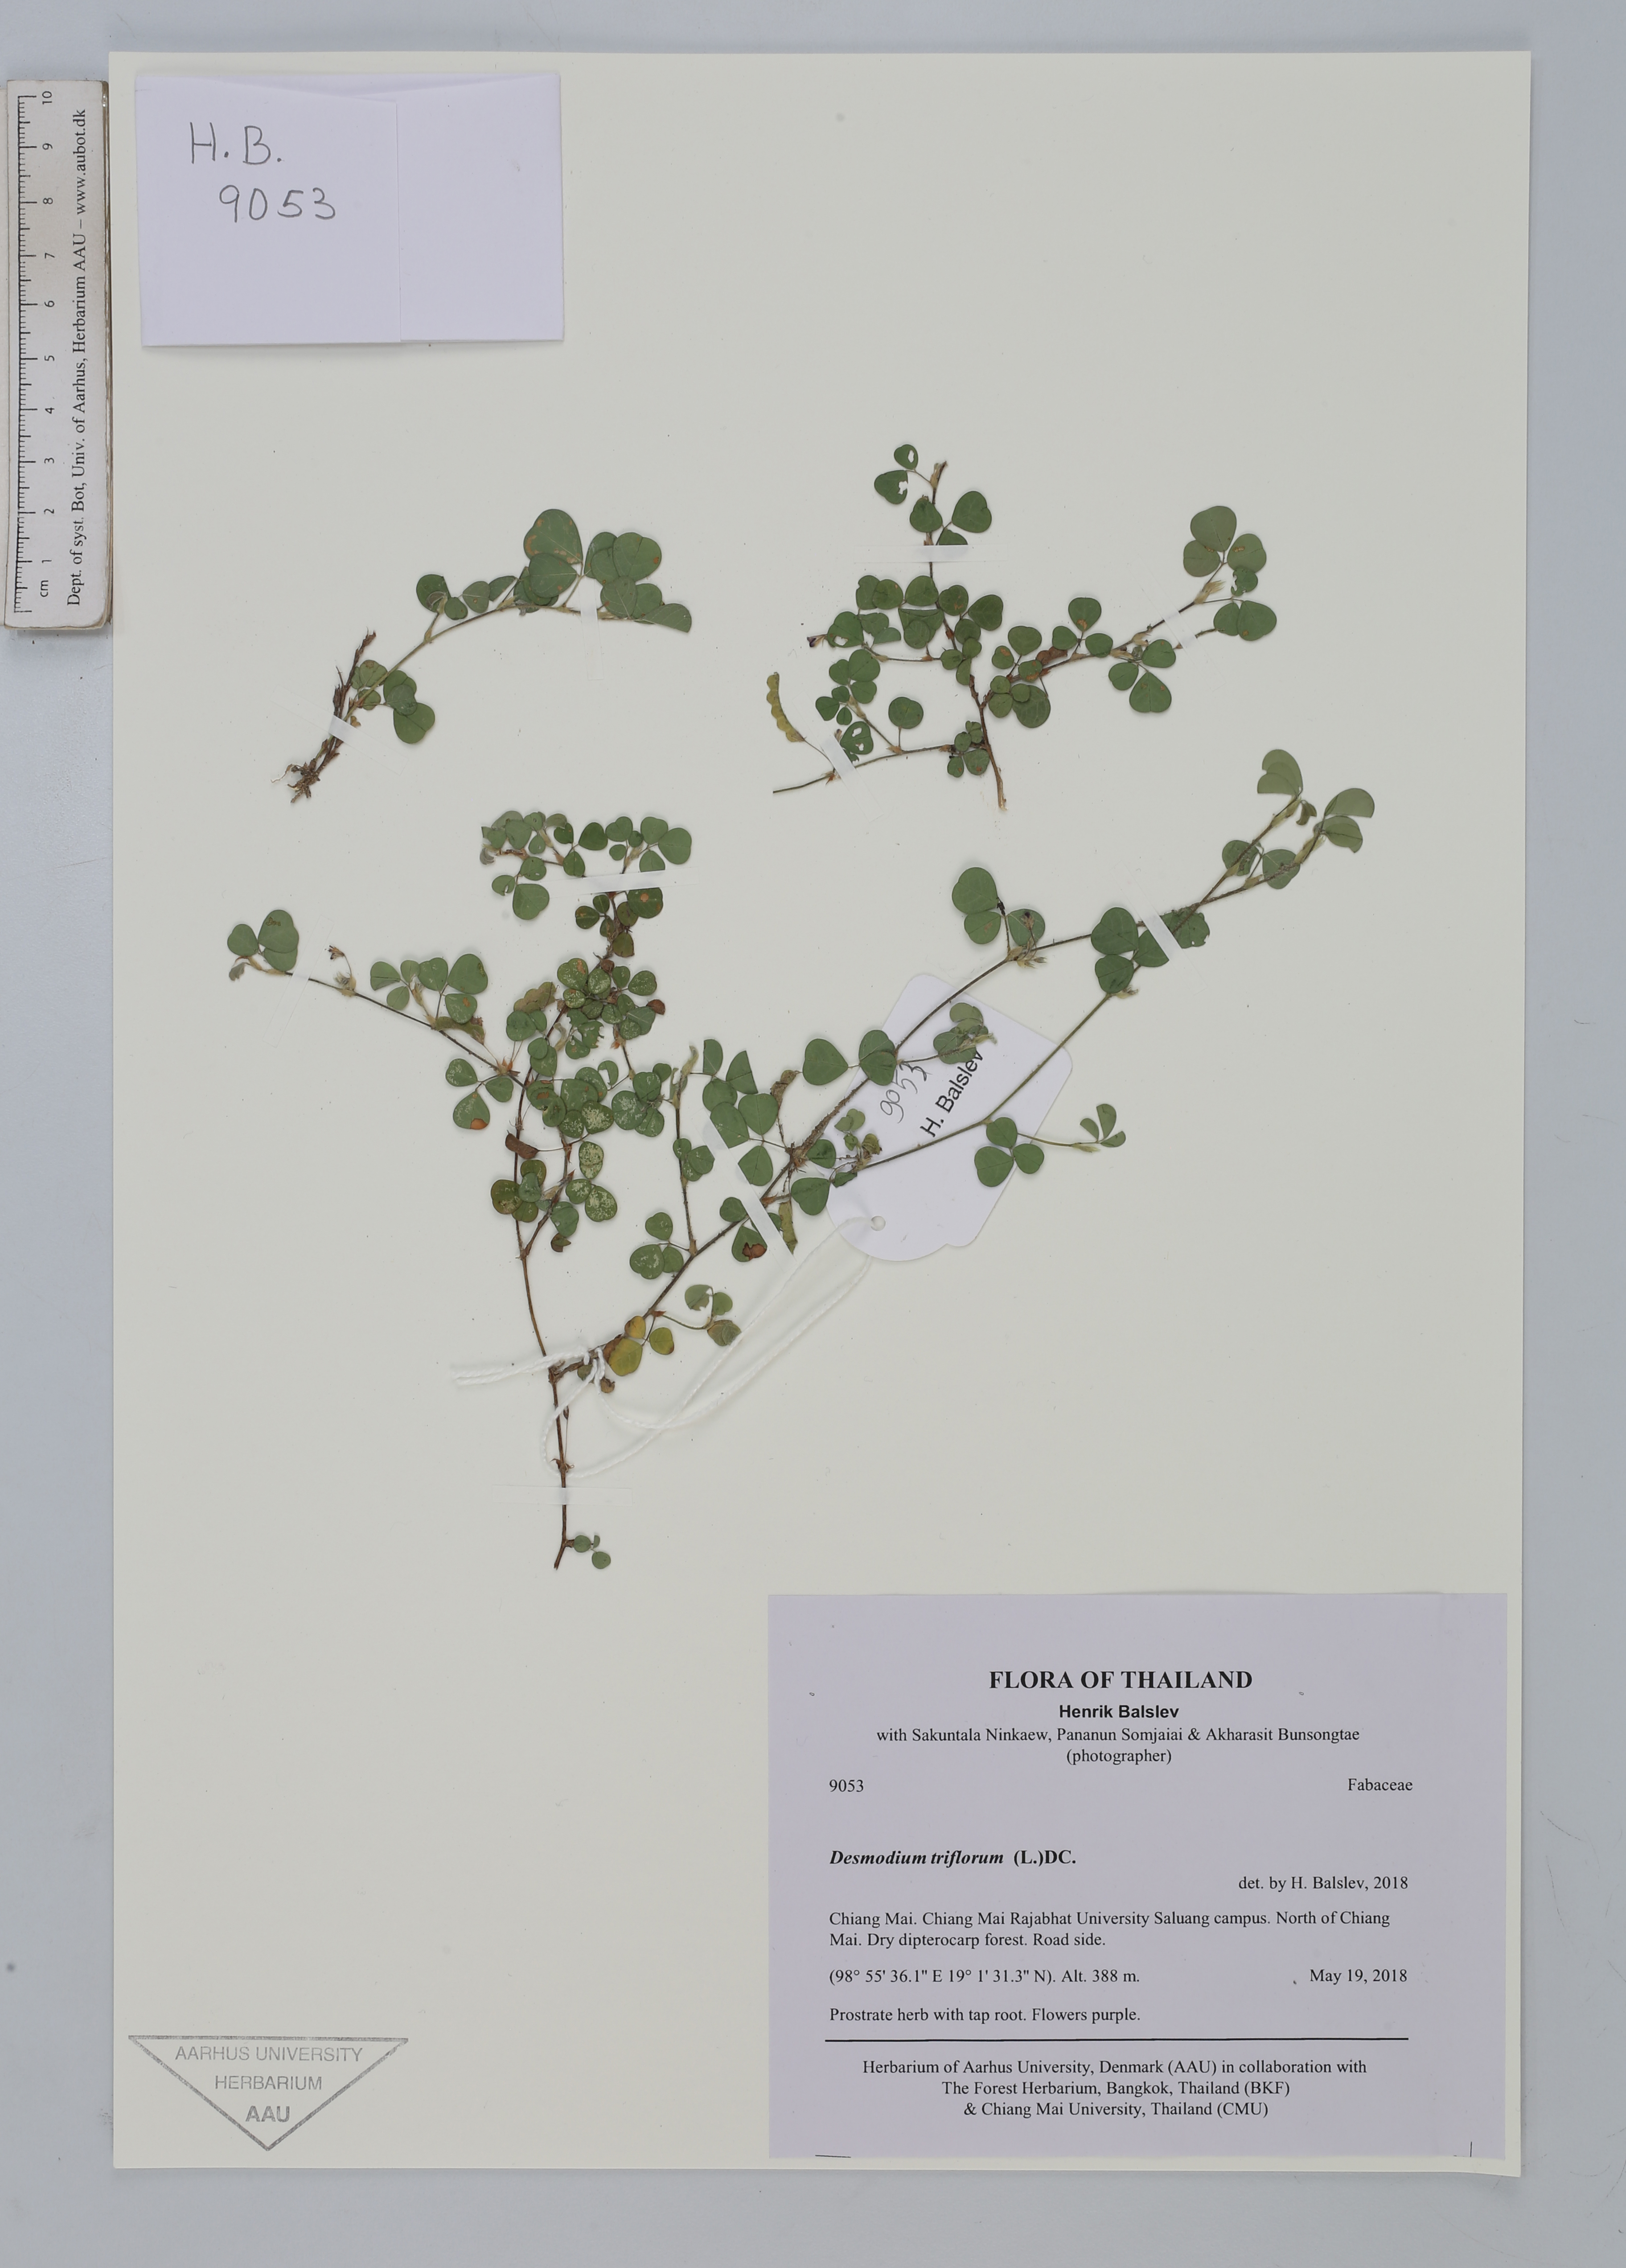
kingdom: Plantae
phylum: Tracheophyta
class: Magnoliopsida
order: Fabales
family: Fabaceae
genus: Grona
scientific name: Grona triflora
